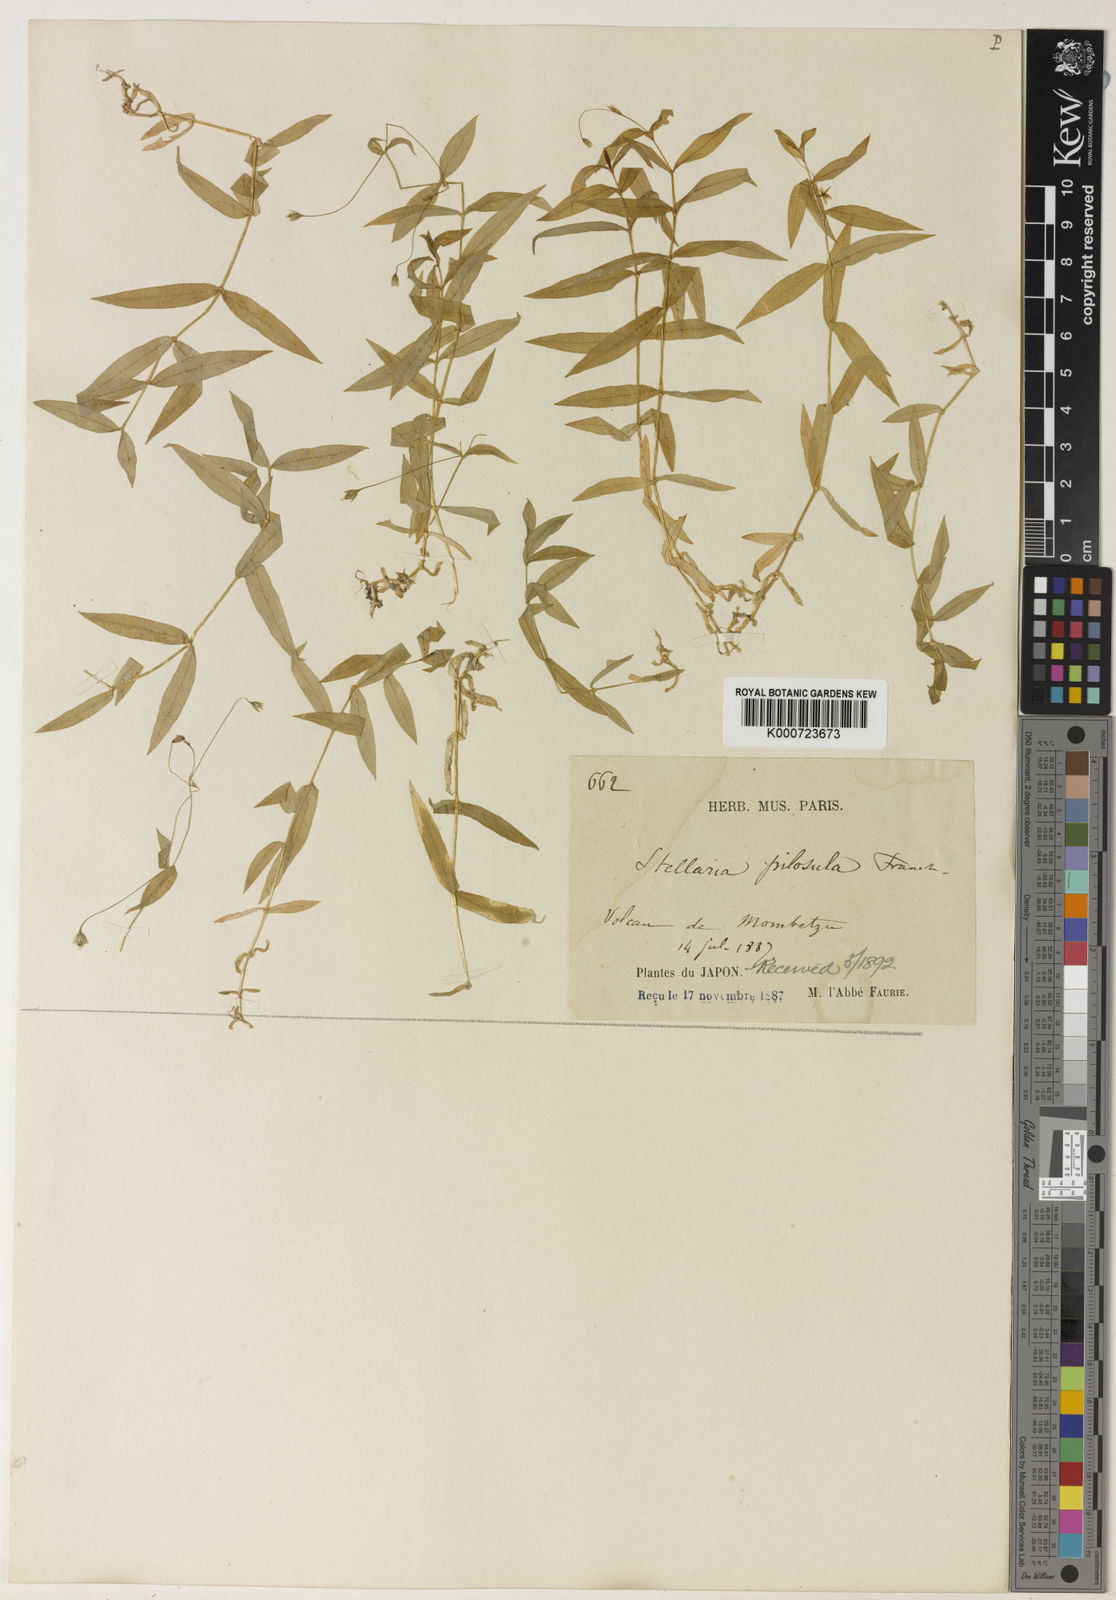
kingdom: Plantae
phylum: Tracheophyta
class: Magnoliopsida
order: Caryophyllales
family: Caryophyllaceae
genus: Stellaria
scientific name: Stellaria fenzlii
